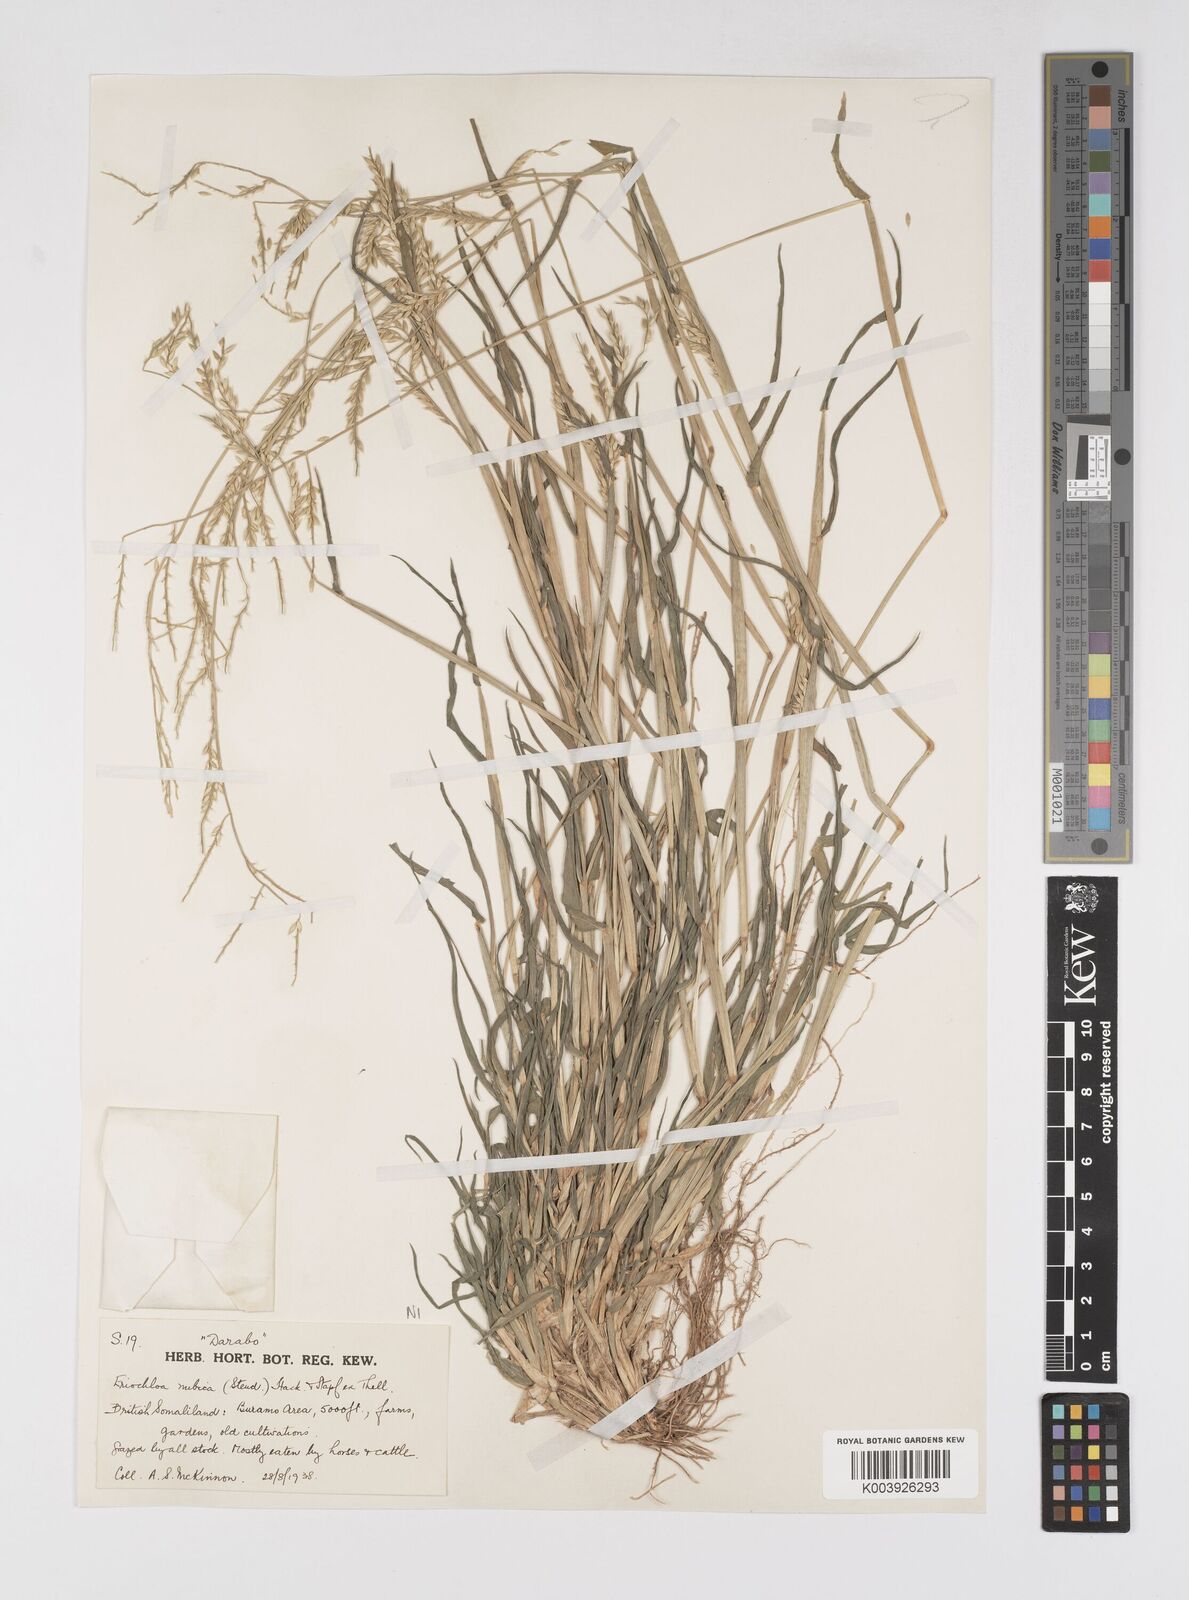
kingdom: Plantae
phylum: Tracheophyta
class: Liliopsida
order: Poales
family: Poaceae
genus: Eriochloa
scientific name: Eriochloa barbatus
